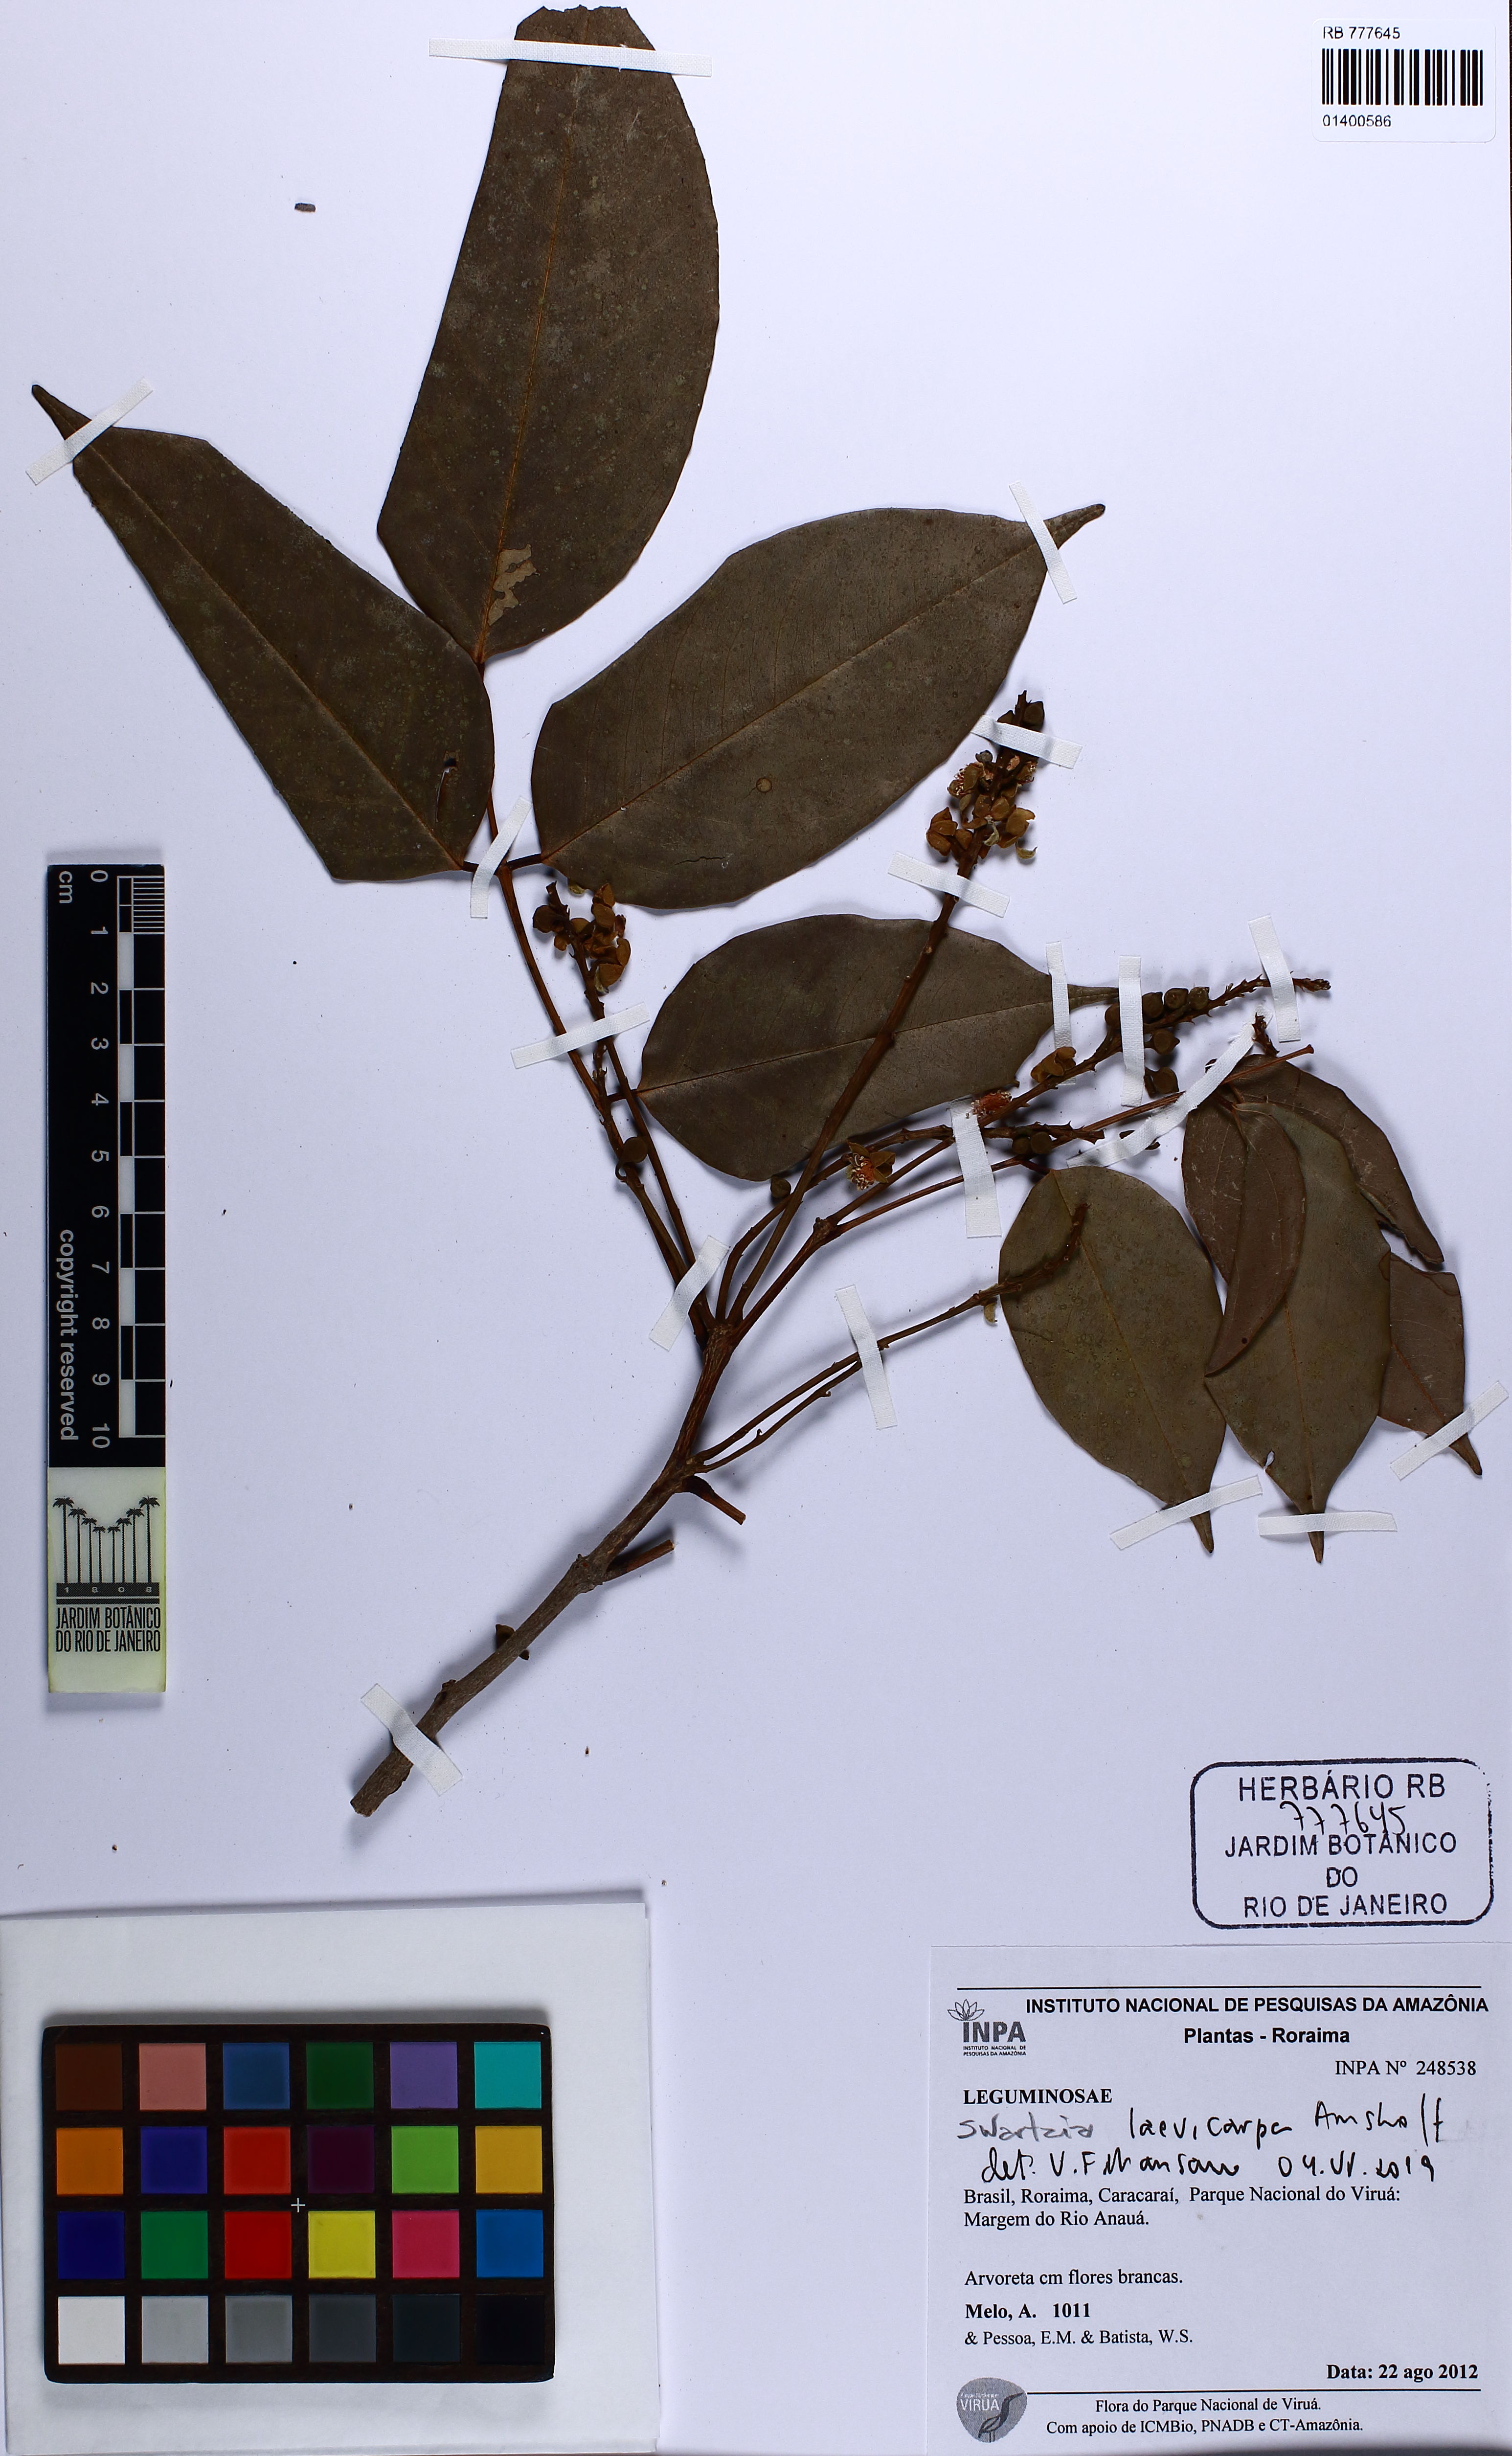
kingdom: Plantae
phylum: Tracheophyta
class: Magnoliopsida
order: Fabales
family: Fabaceae
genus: Swartzia
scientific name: Swartzia laevicarpa
